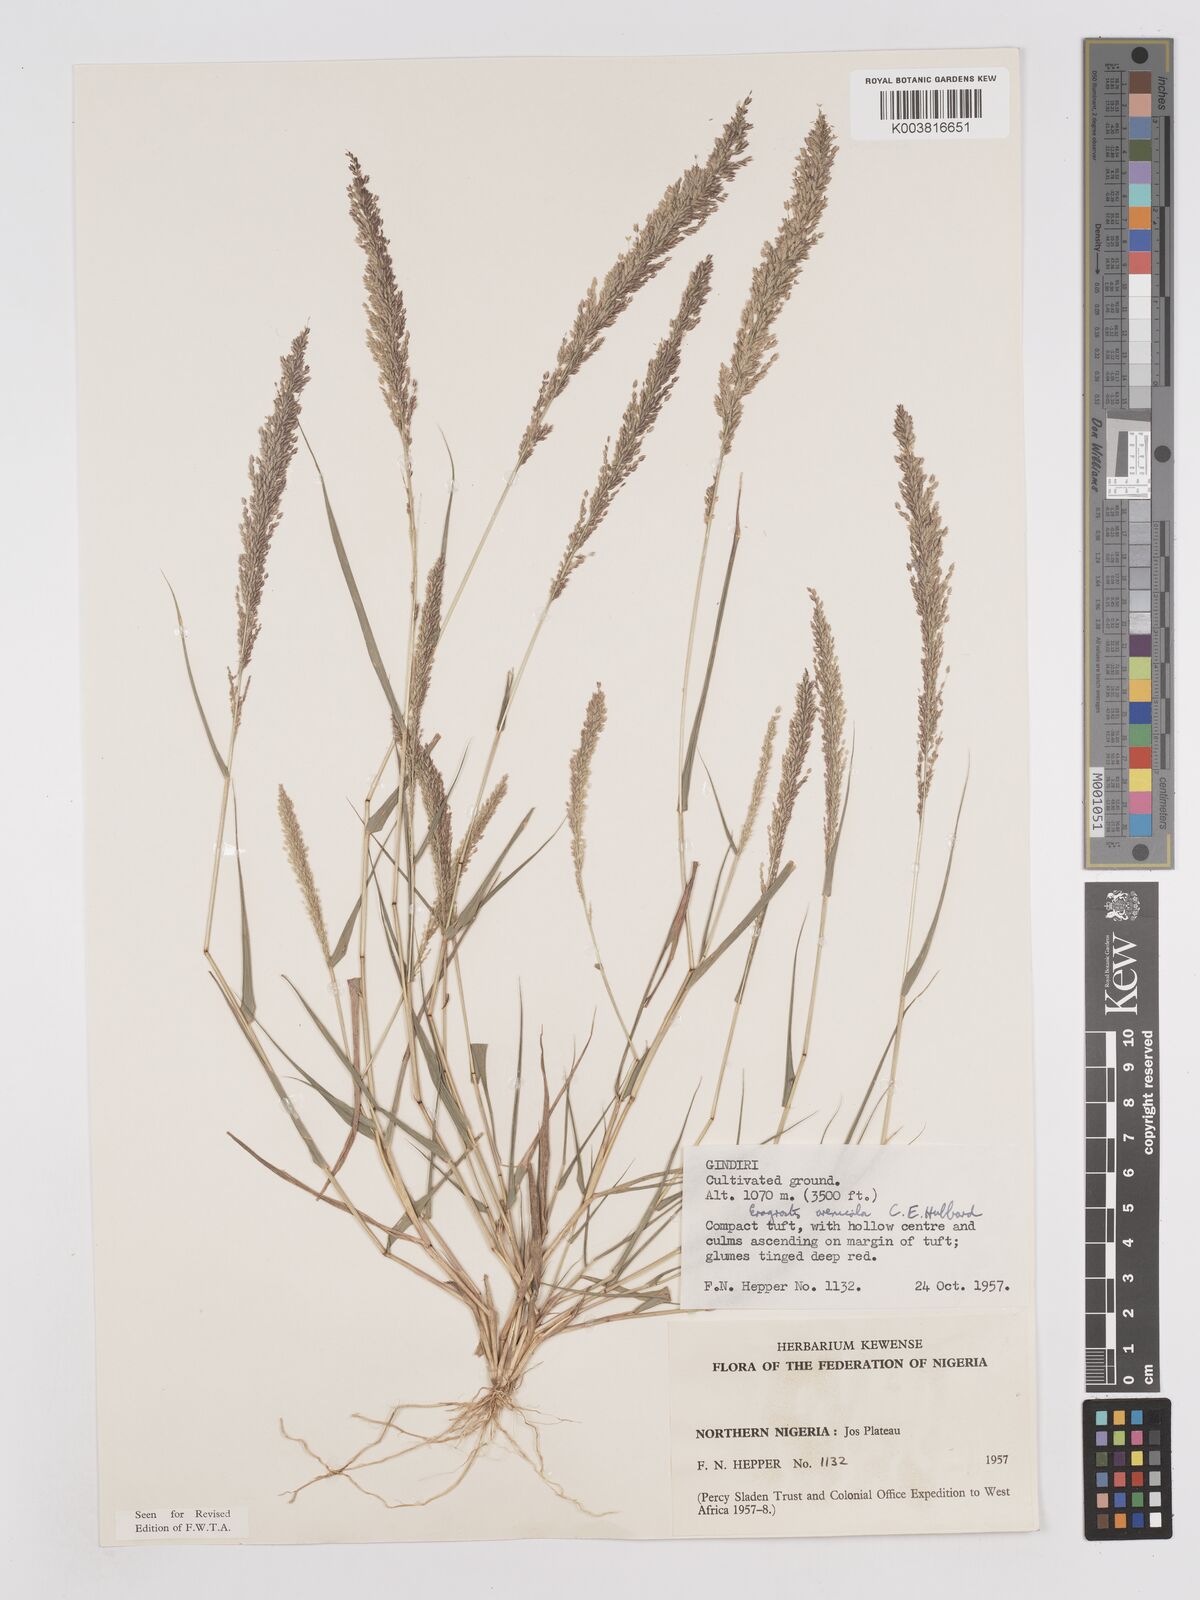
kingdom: Plantae
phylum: Tracheophyta
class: Liliopsida
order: Poales
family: Poaceae
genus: Eragrostis
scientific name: Eragrostis arenicola
